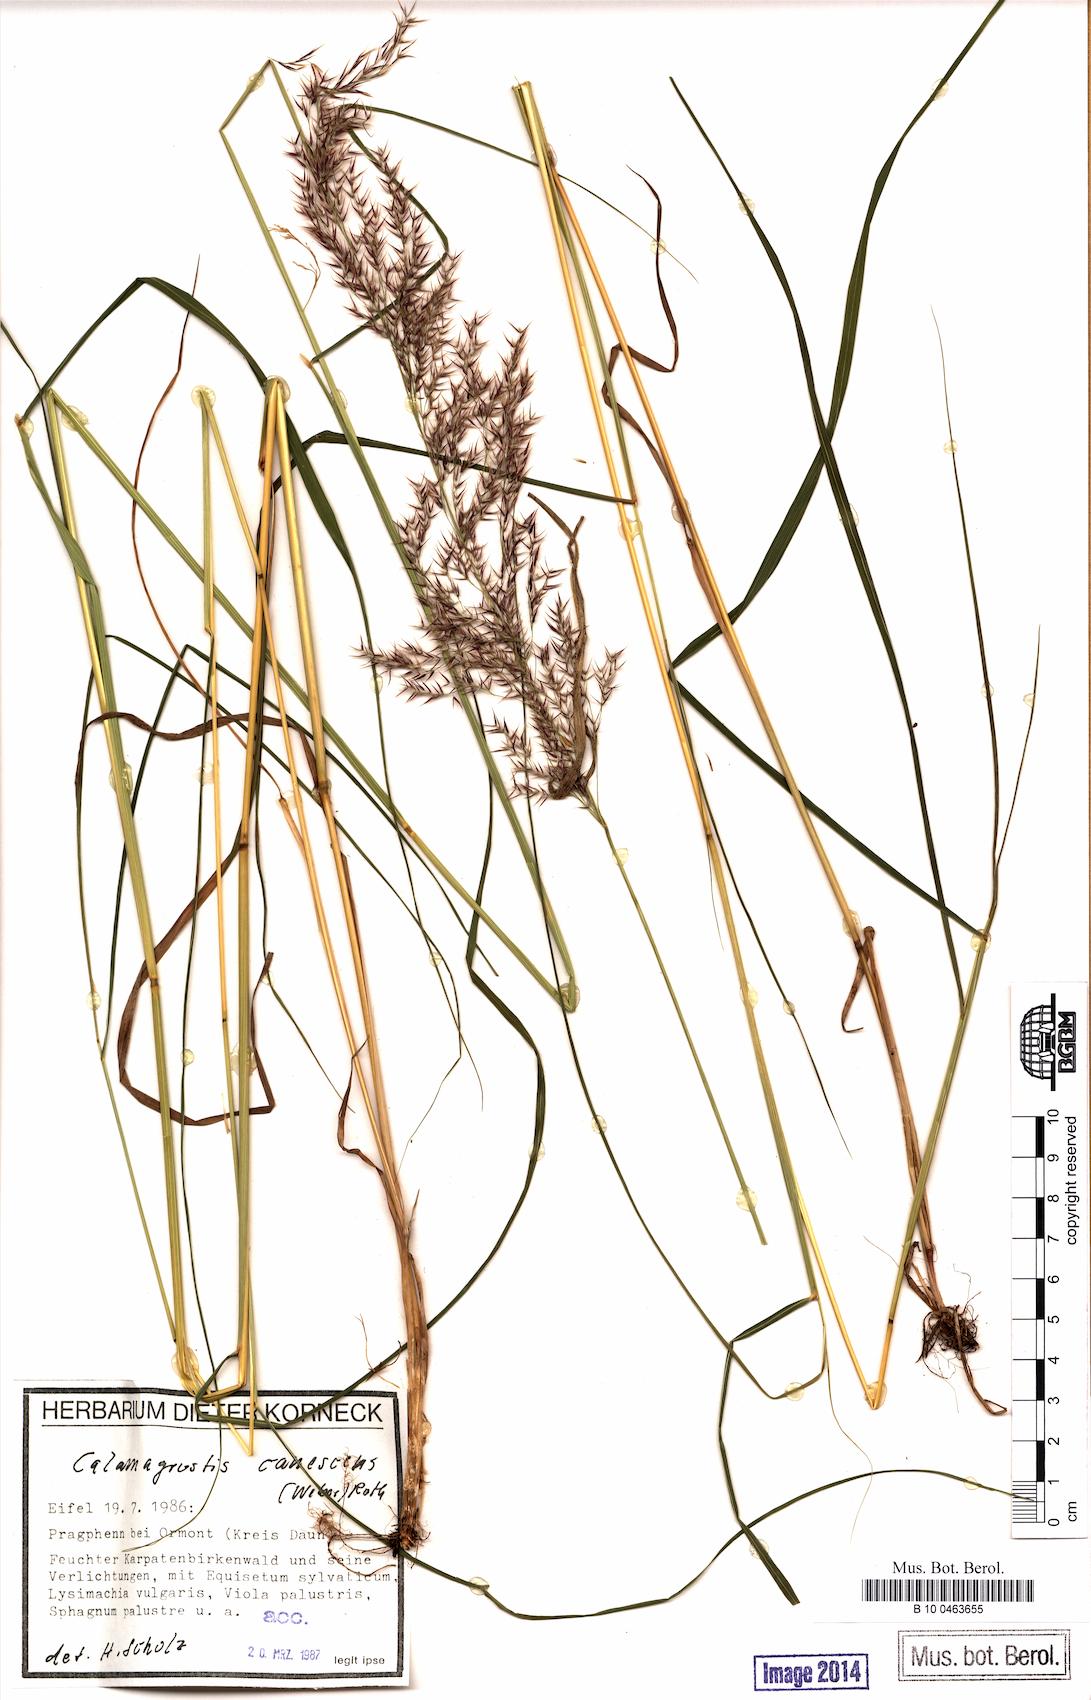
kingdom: Plantae
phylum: Tracheophyta
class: Liliopsida
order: Poales
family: Poaceae
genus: Calamagrostis
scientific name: Calamagrostis canescens
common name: Purple small-reed
